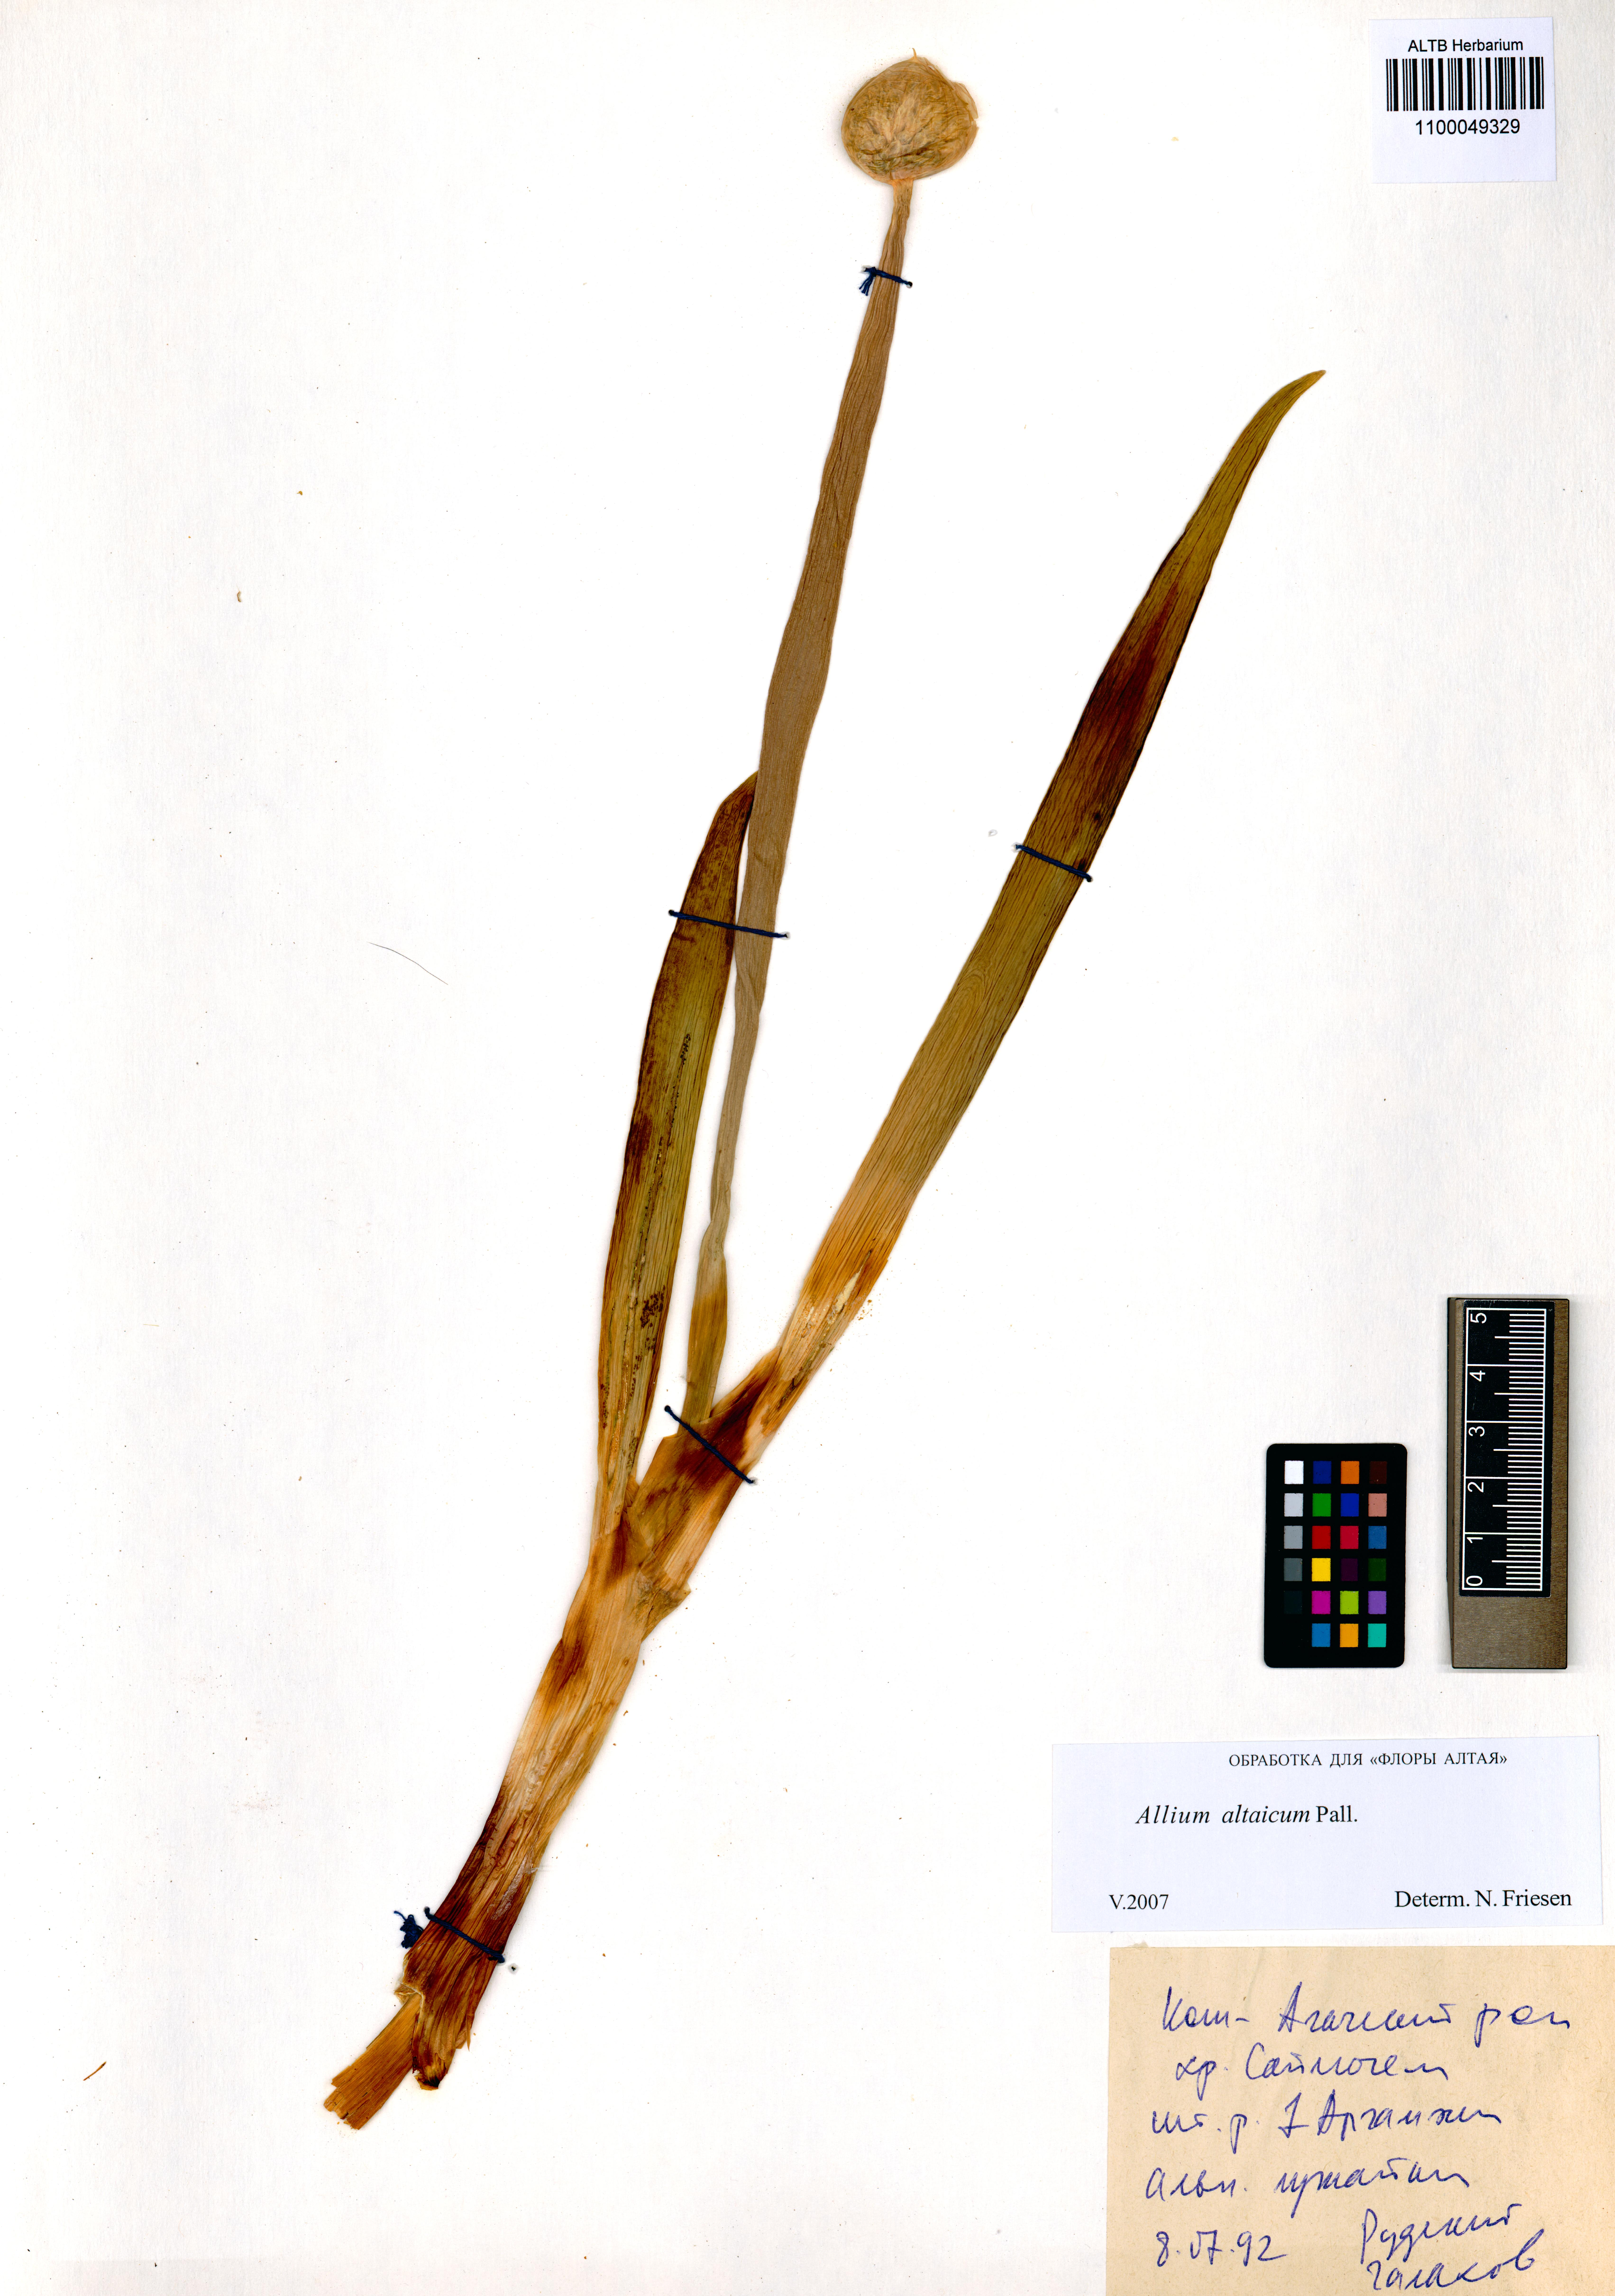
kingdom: Plantae
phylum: Tracheophyta
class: Liliopsida
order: Asparagales
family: Amaryllidaceae
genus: Allium
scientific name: Allium altaicum
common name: Altai onion
